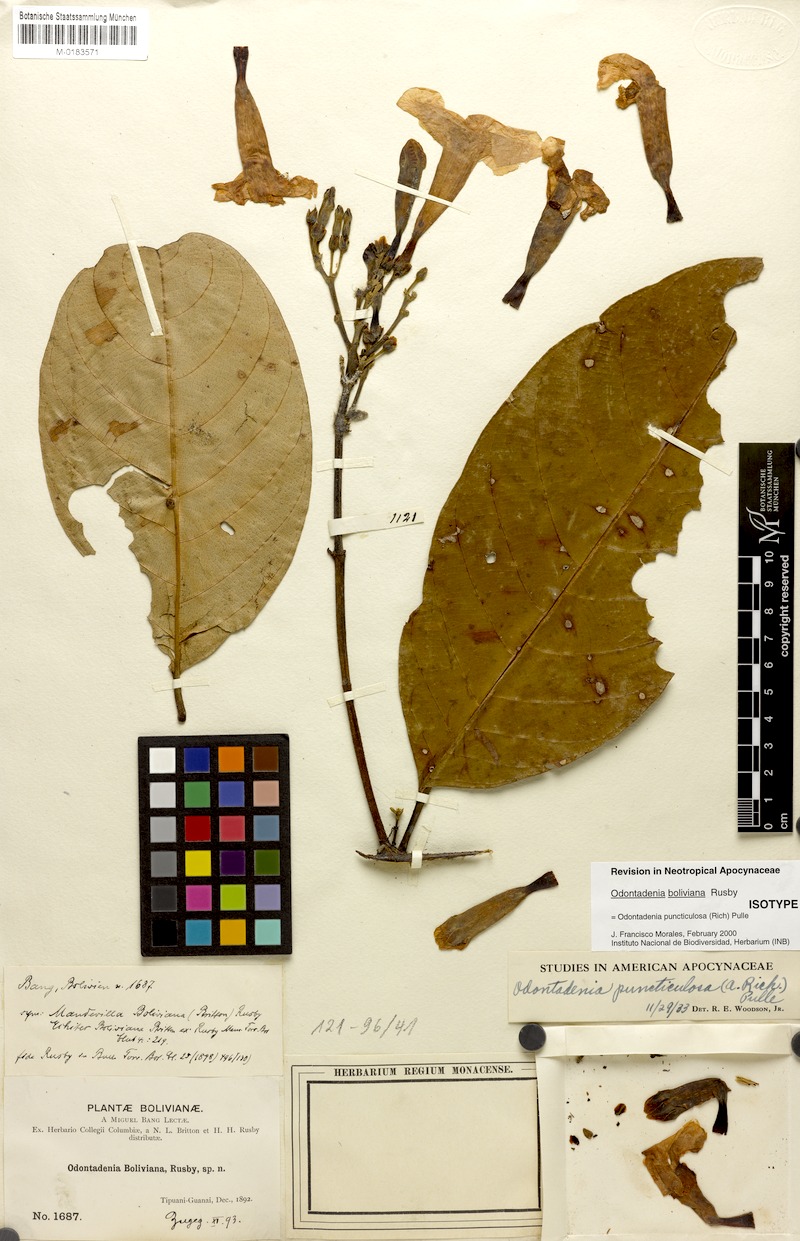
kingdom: Plantae
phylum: Tracheophyta
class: Magnoliopsida
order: Gentianales
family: Apocynaceae
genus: Odontadenia
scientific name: Odontadenia puncticulosa
